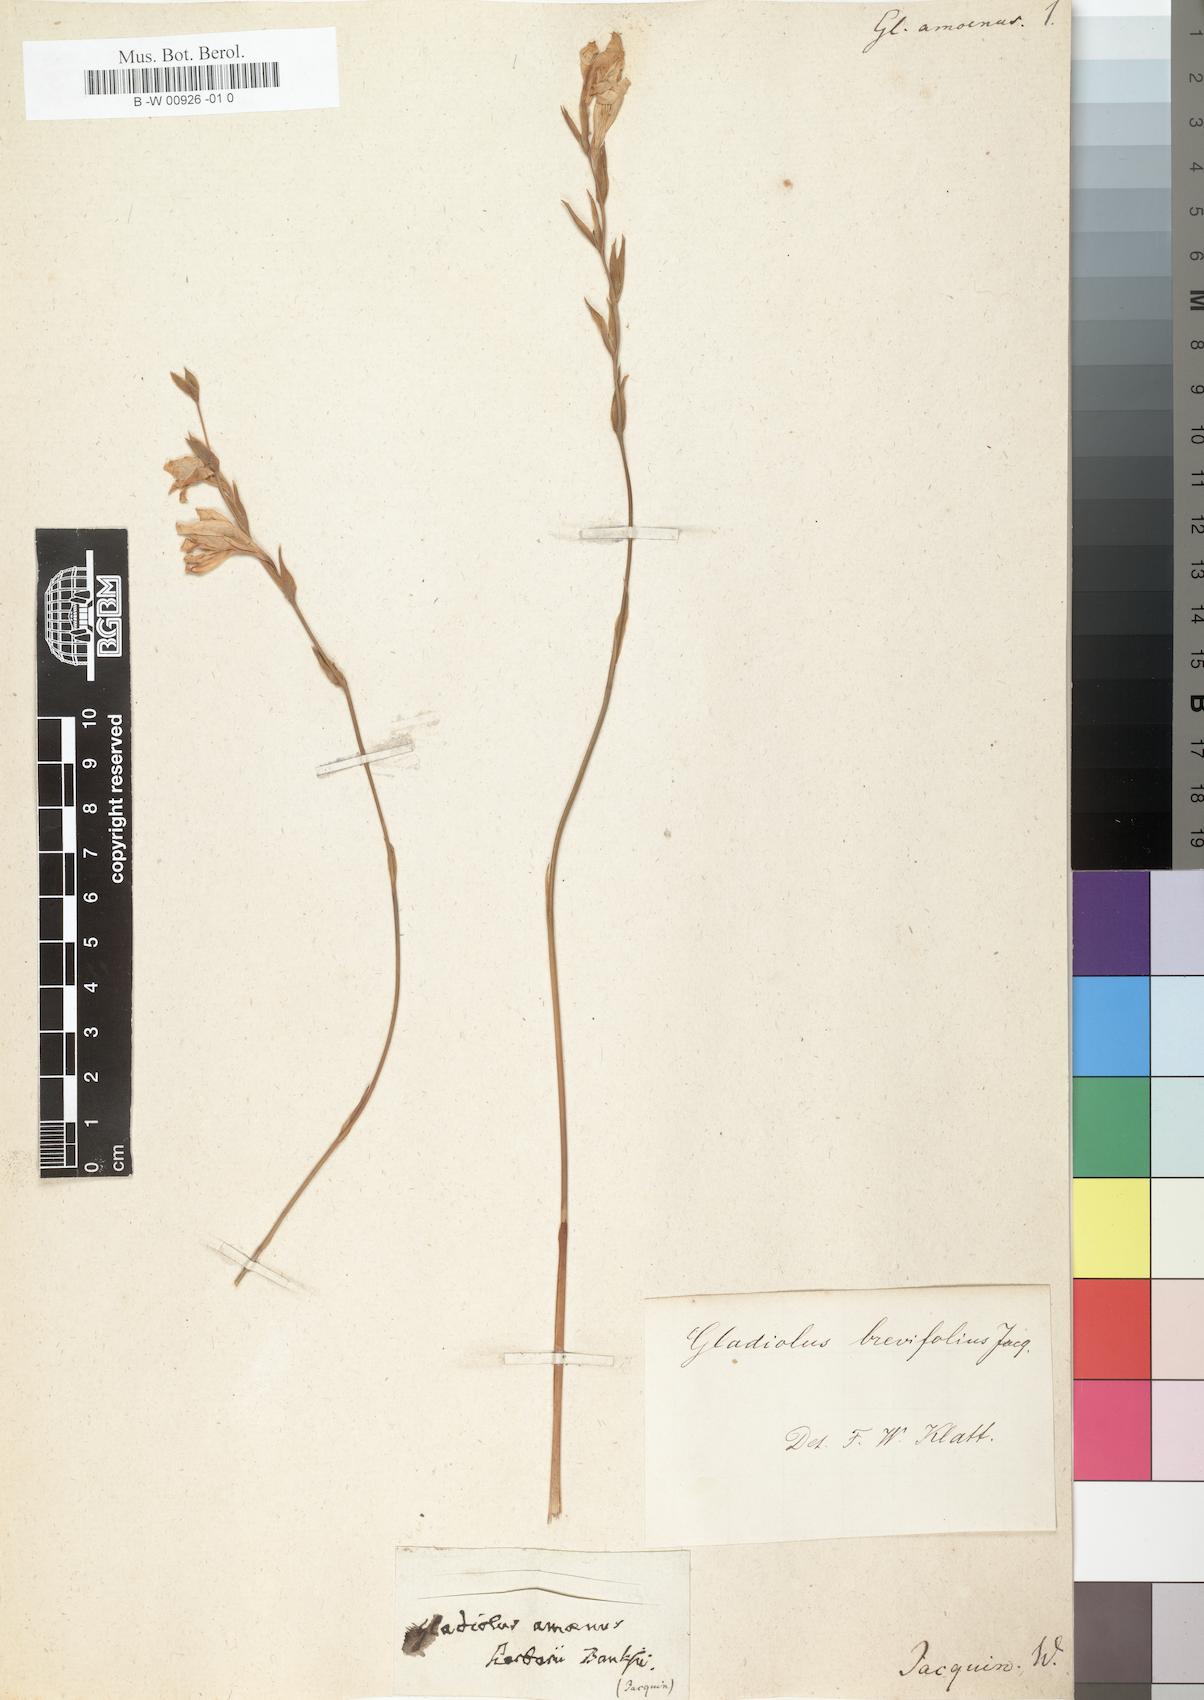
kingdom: Plantae
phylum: Tracheophyta
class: Liliopsida
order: Asparagales
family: Iridaceae
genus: Gladiolus
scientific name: Gladiolus brevifolius
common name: March pypie
